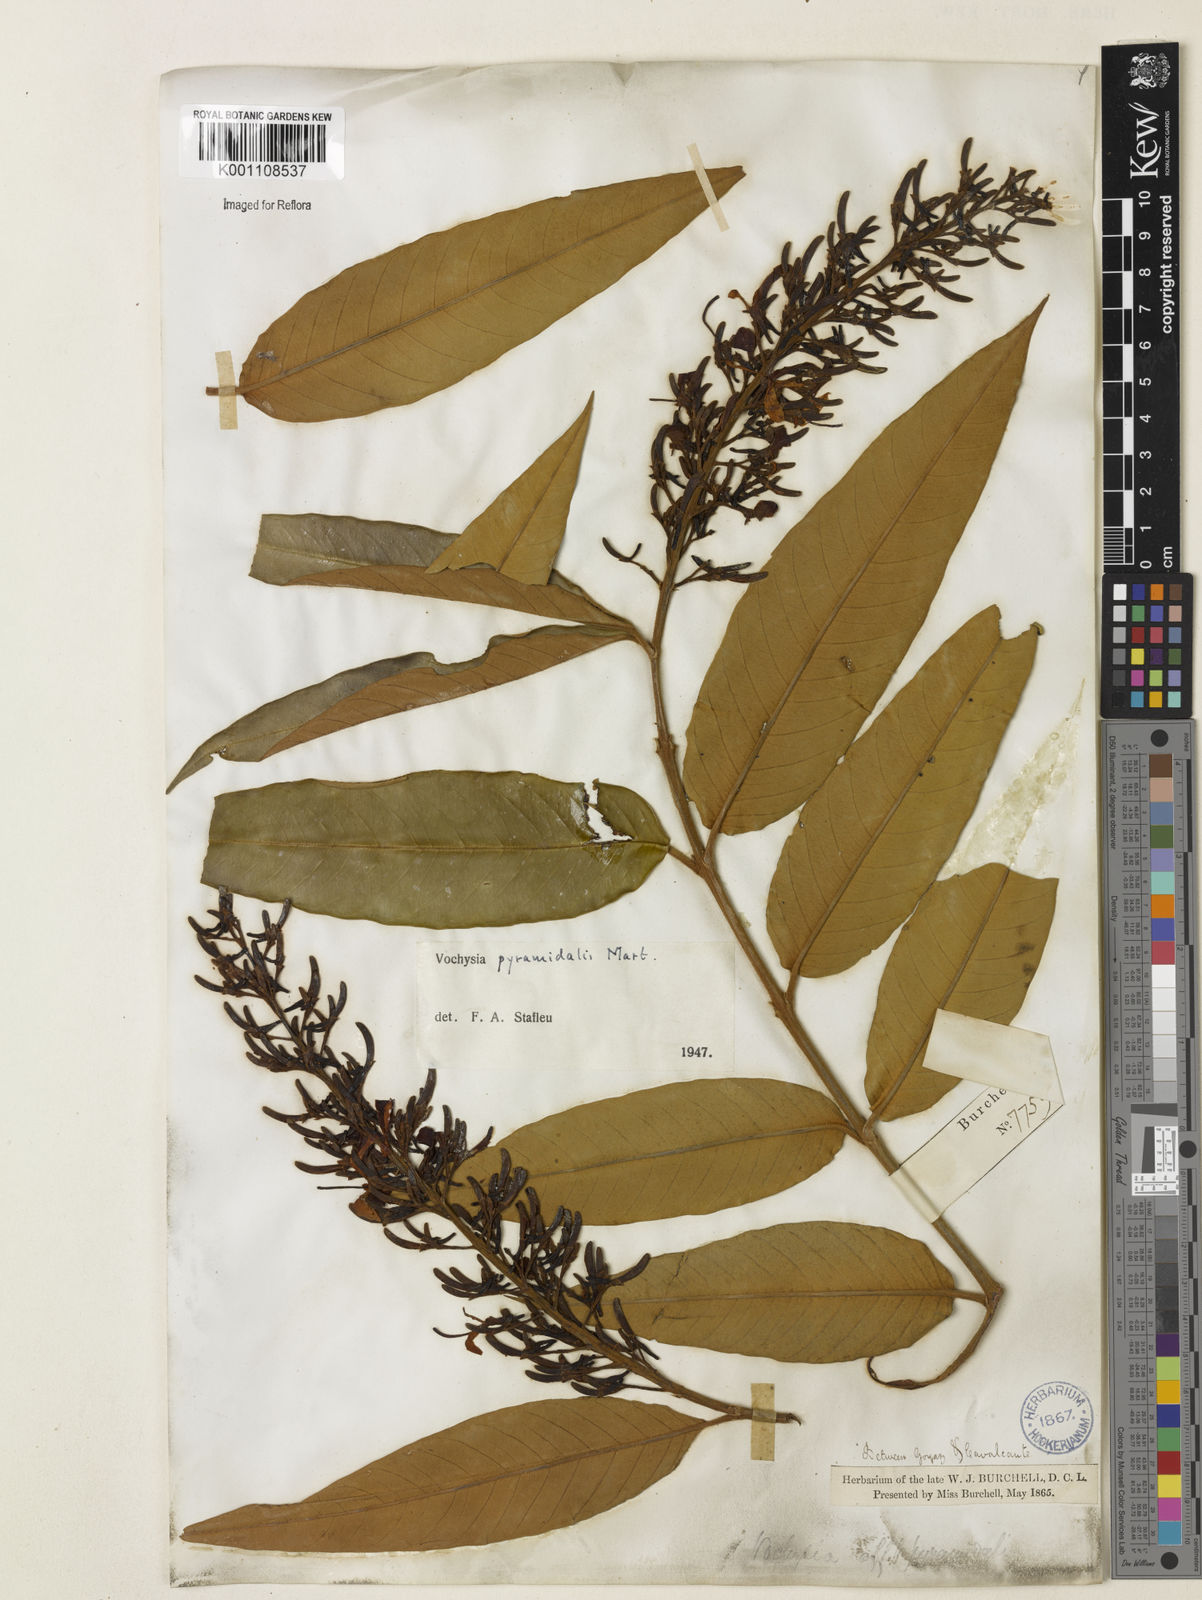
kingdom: Plantae
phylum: Tracheophyta
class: Magnoliopsida
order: Myrtales
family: Vochysiaceae
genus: Vochysia
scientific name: Vochysia pyramidalis
